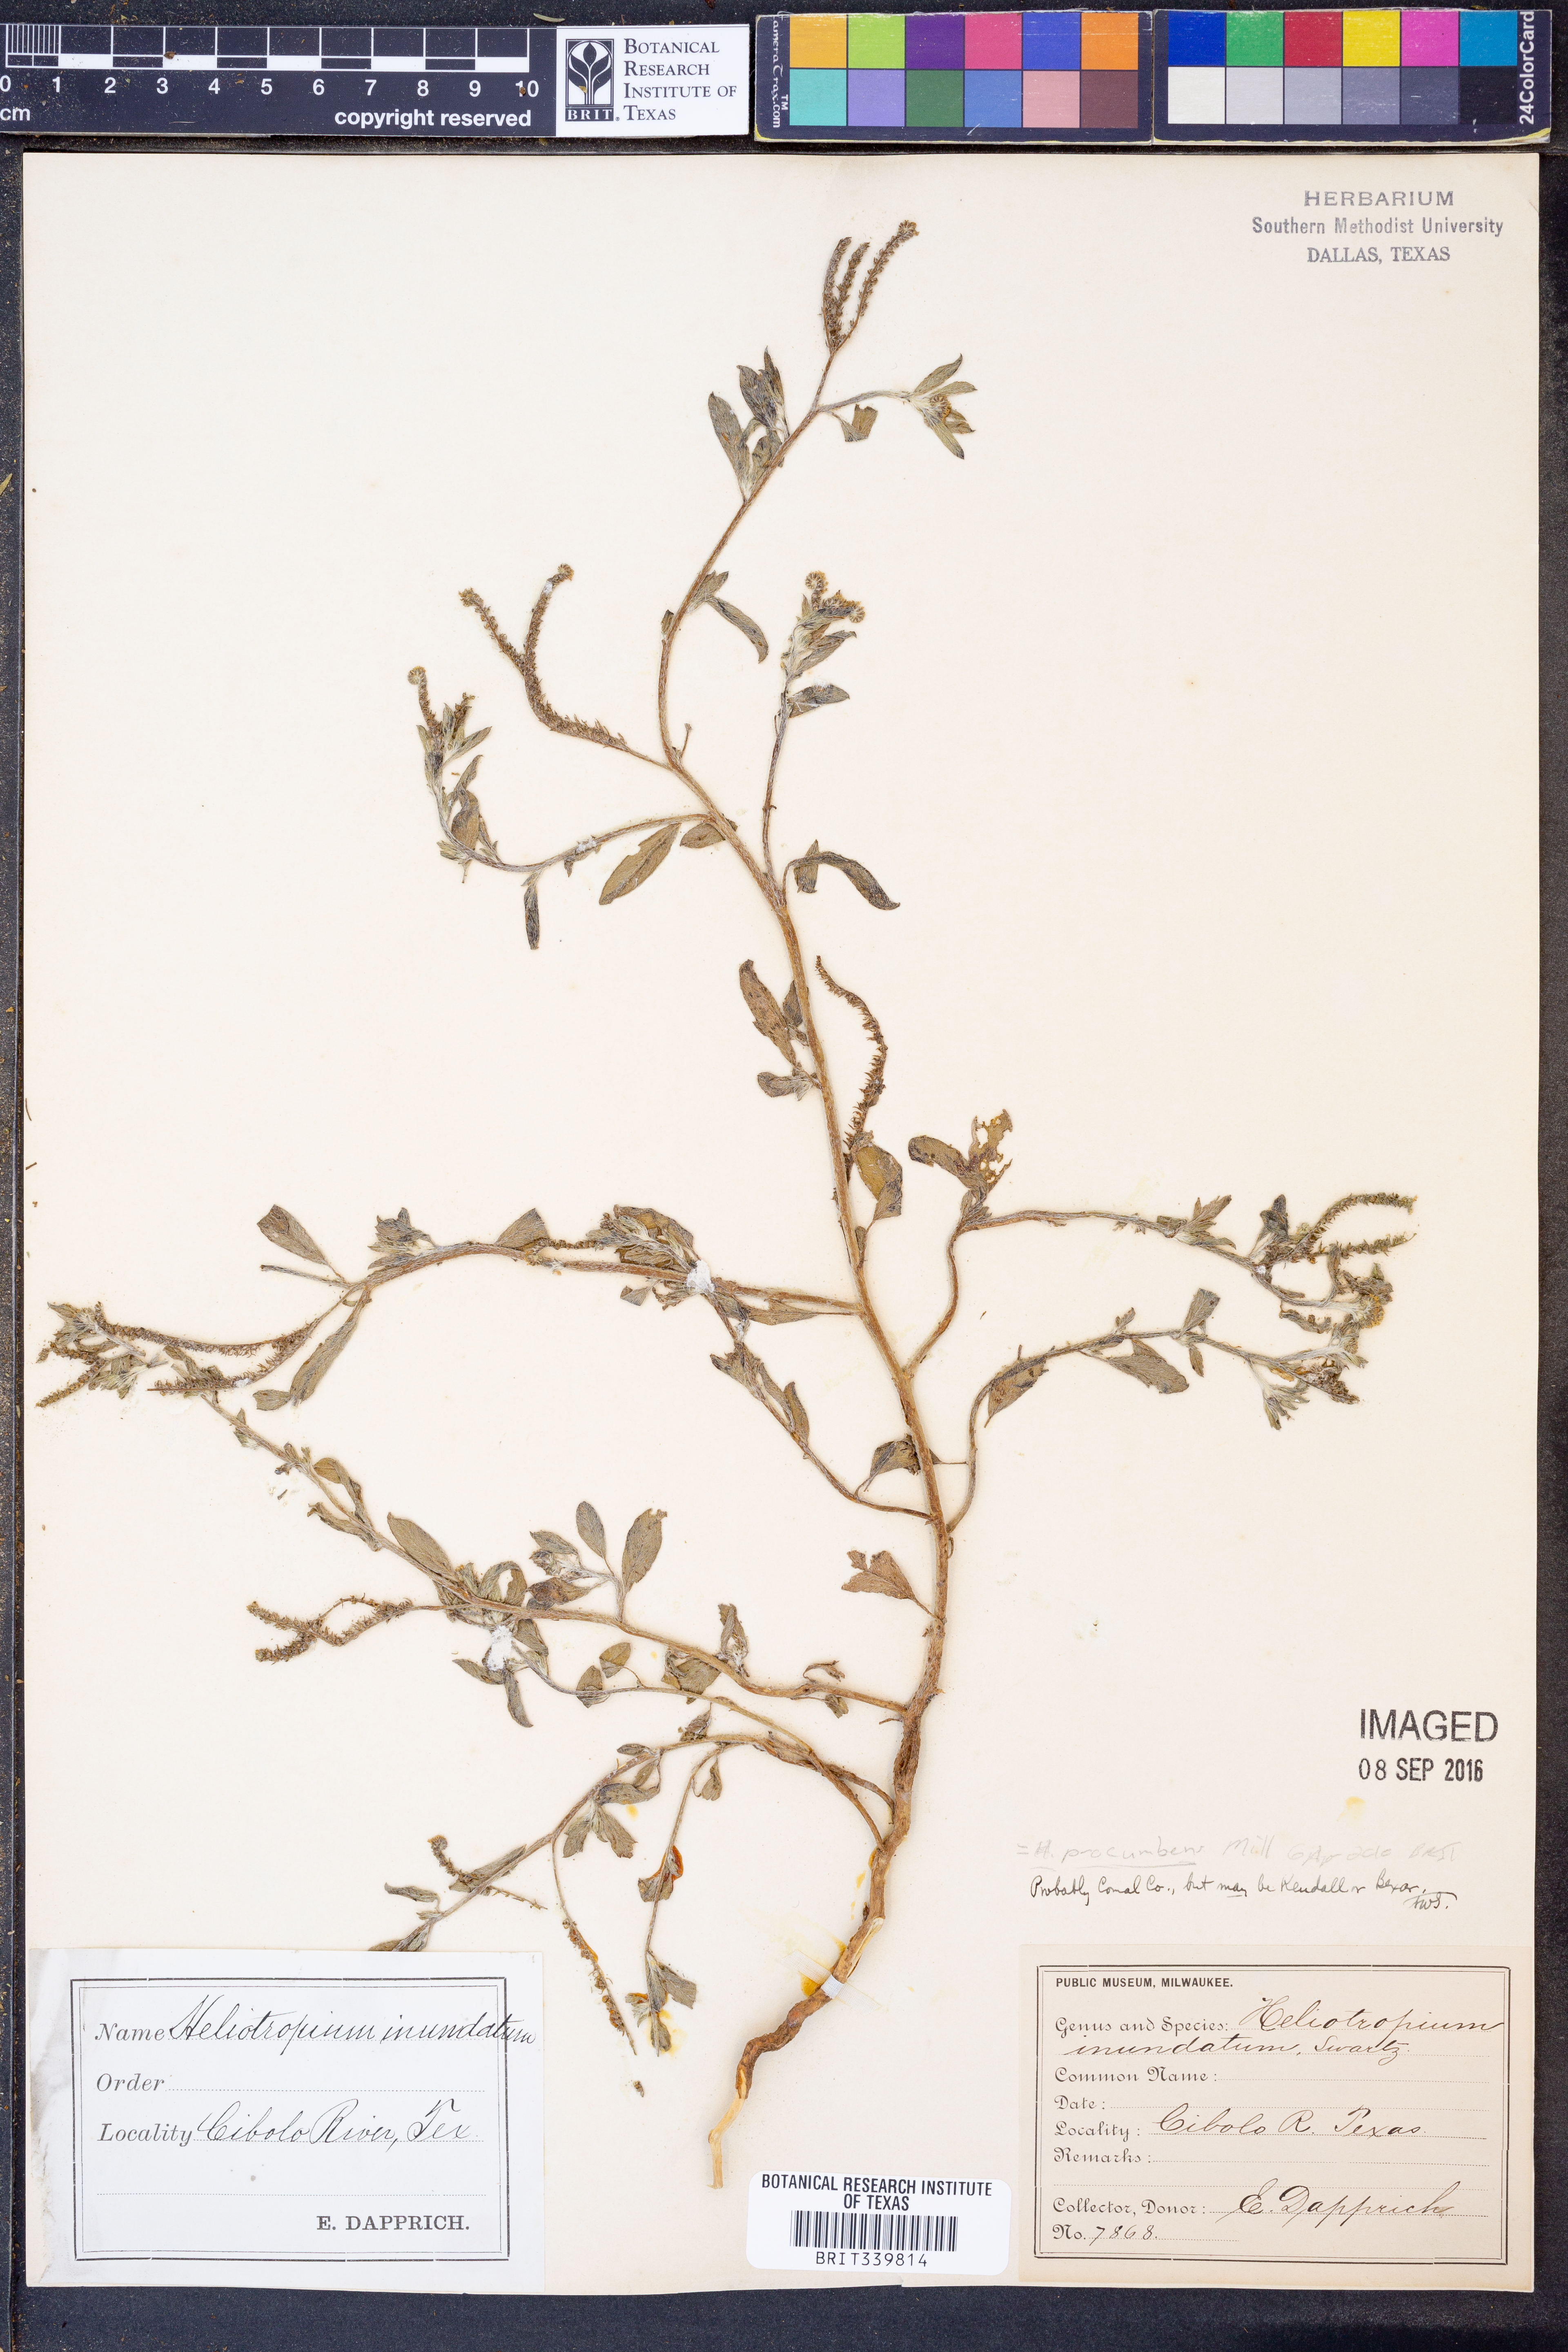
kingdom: Plantae
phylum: Tracheophyta
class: Magnoliopsida
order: Boraginales
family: Heliotropiaceae
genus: Euploca
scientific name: Euploca procumbens
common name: Fourspike heliotrope
